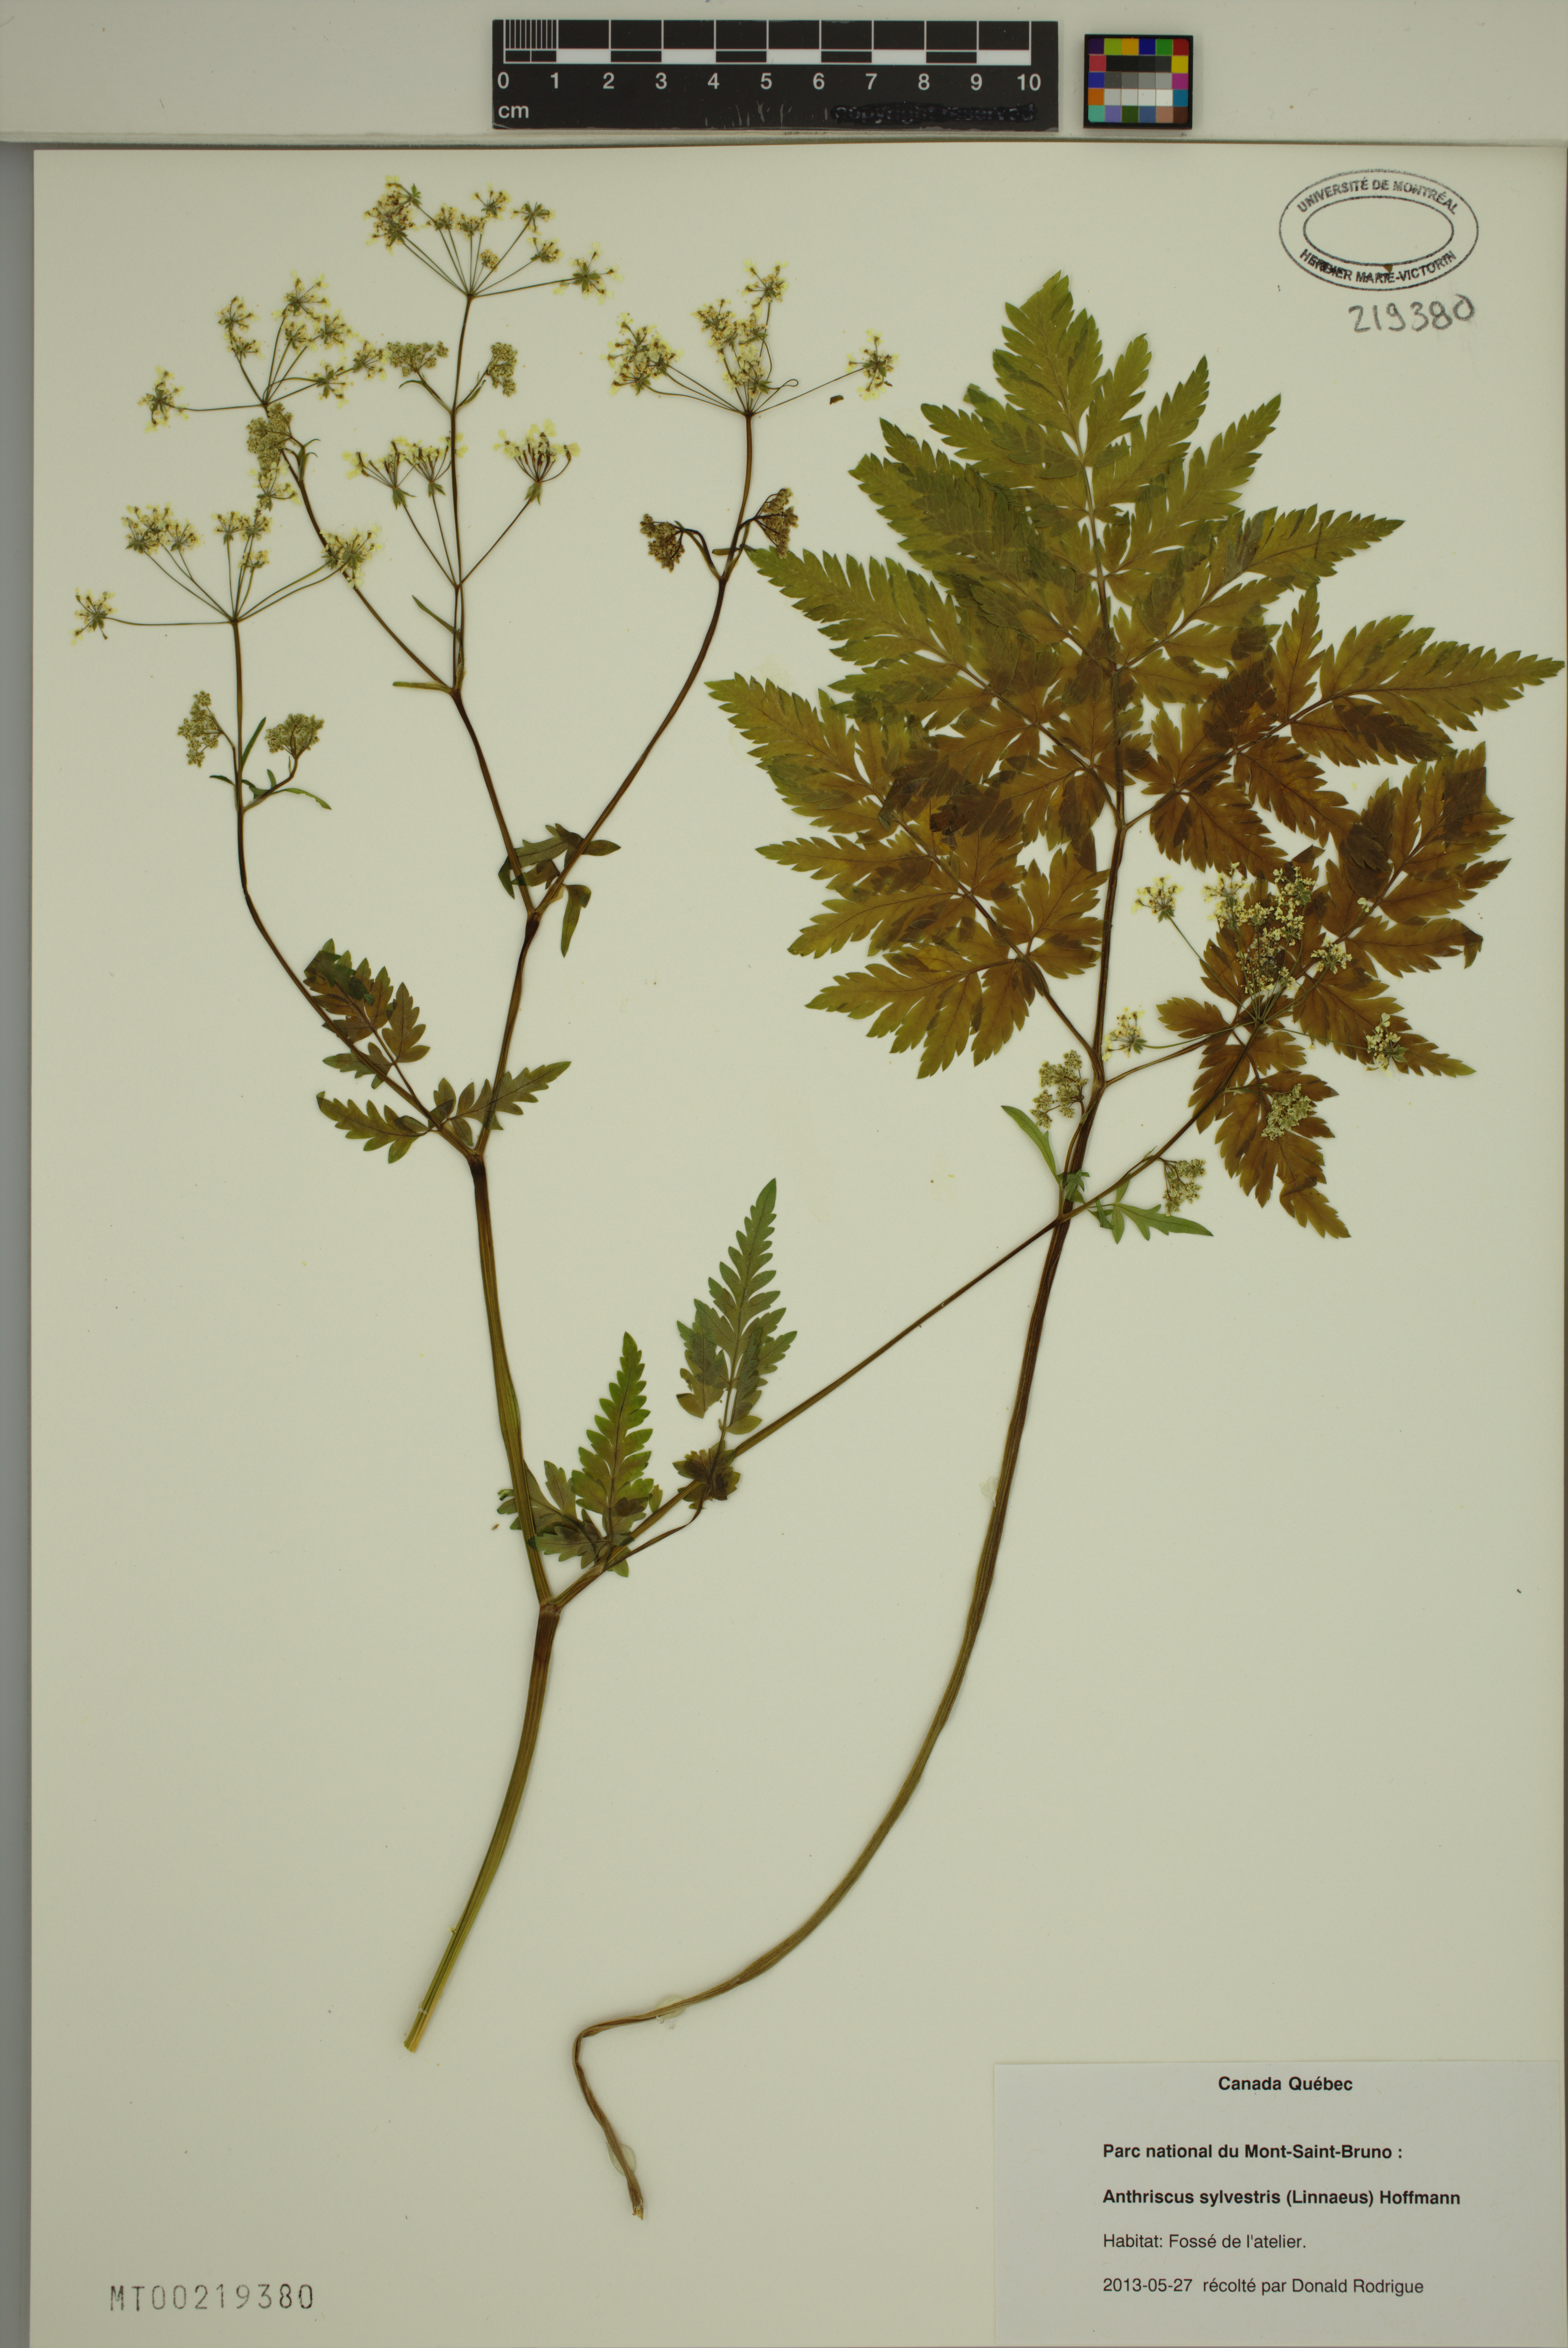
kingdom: Plantae
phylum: Tracheophyta
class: Magnoliopsida
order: Apiales
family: Apiaceae
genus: Anthriscus
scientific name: Anthriscus sylvestris
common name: Cow parsley
